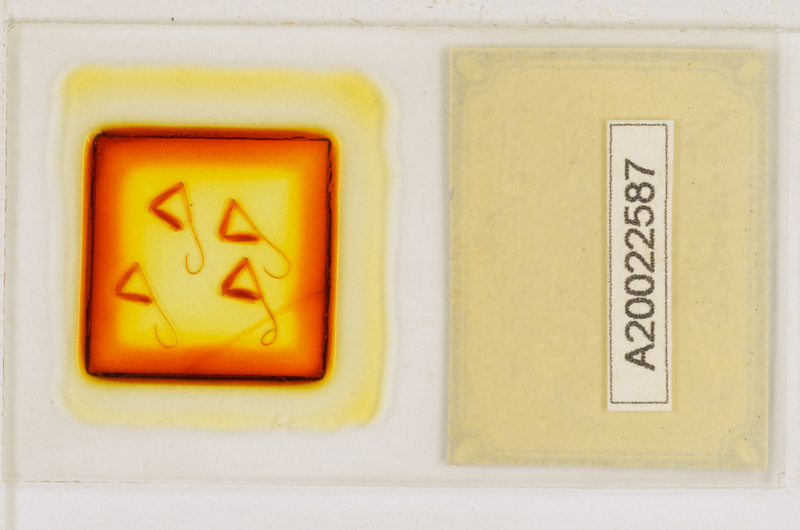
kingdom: Animalia
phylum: Arthropoda
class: Chilopoda
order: Scutigeromorpha
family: Scutigeridae
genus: Scutigera
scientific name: Scutigera coleoptrata
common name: House centipede
